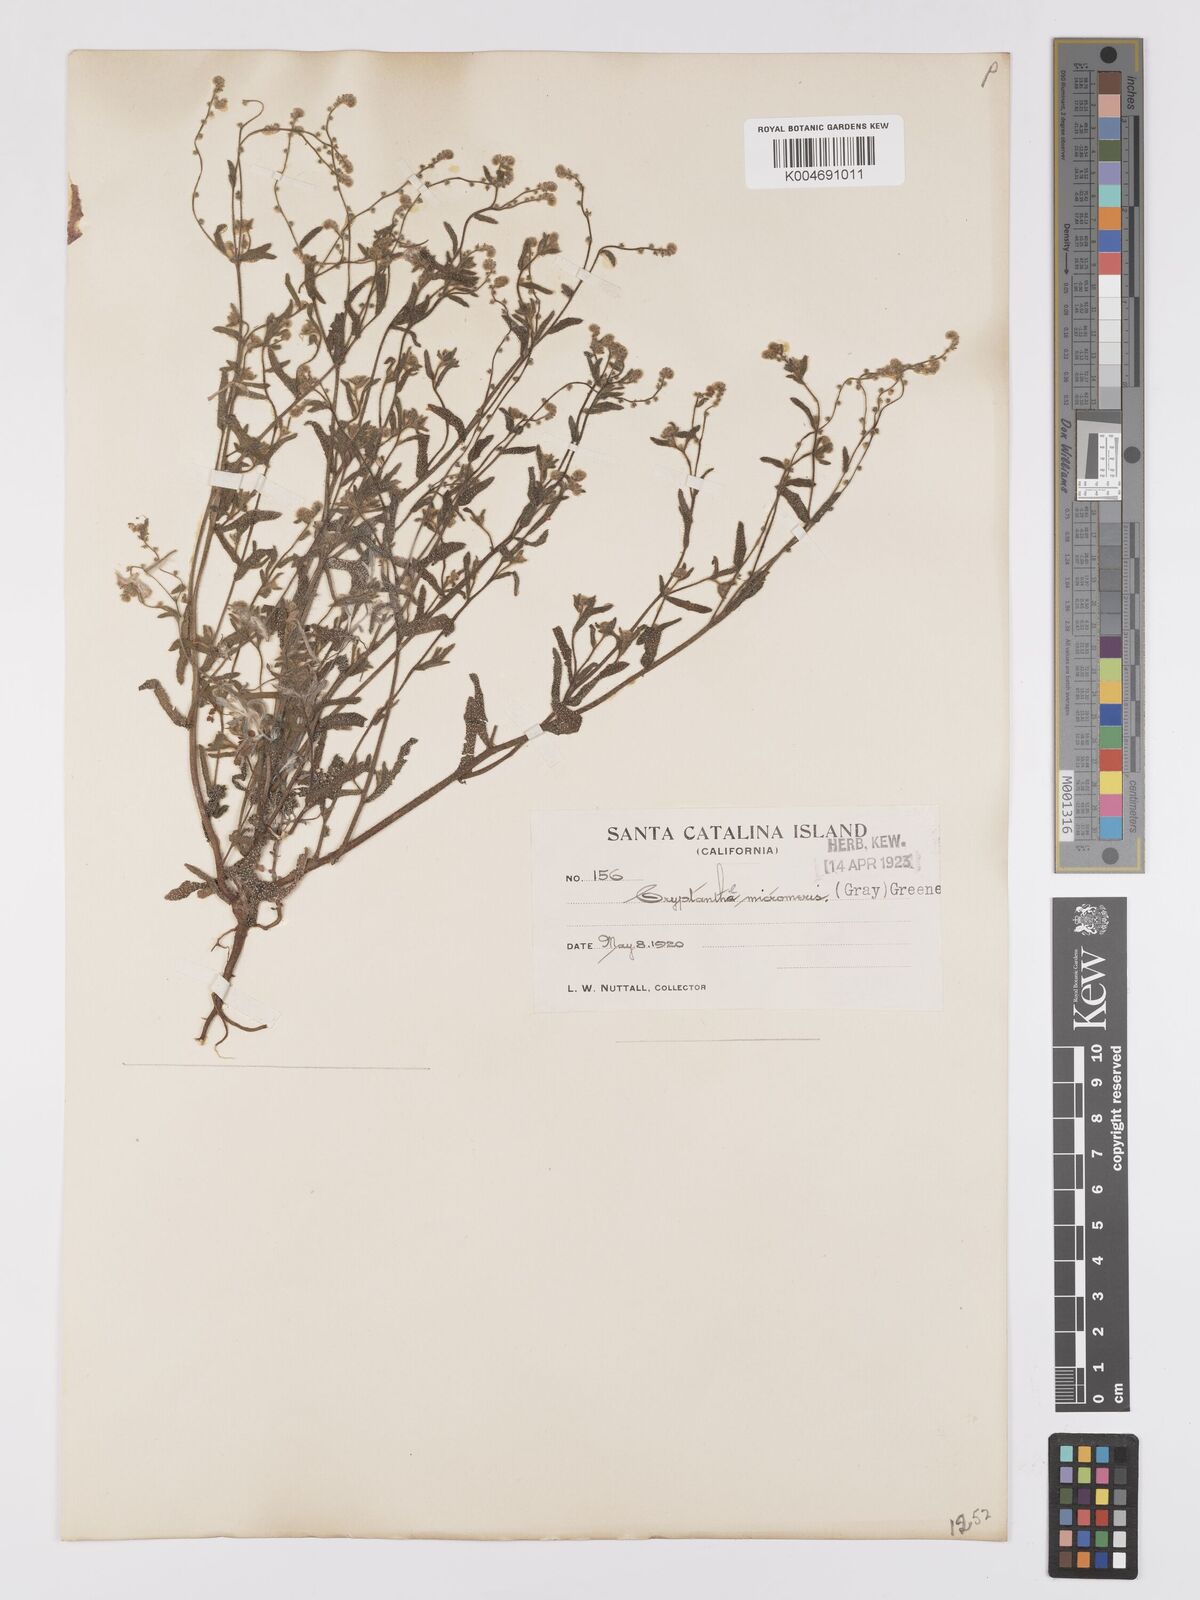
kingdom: Plantae
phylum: Tracheophyta
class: Magnoliopsida
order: Boraginales
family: Boraginaceae
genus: Johnstonella
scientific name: Johnstonella micromeres
